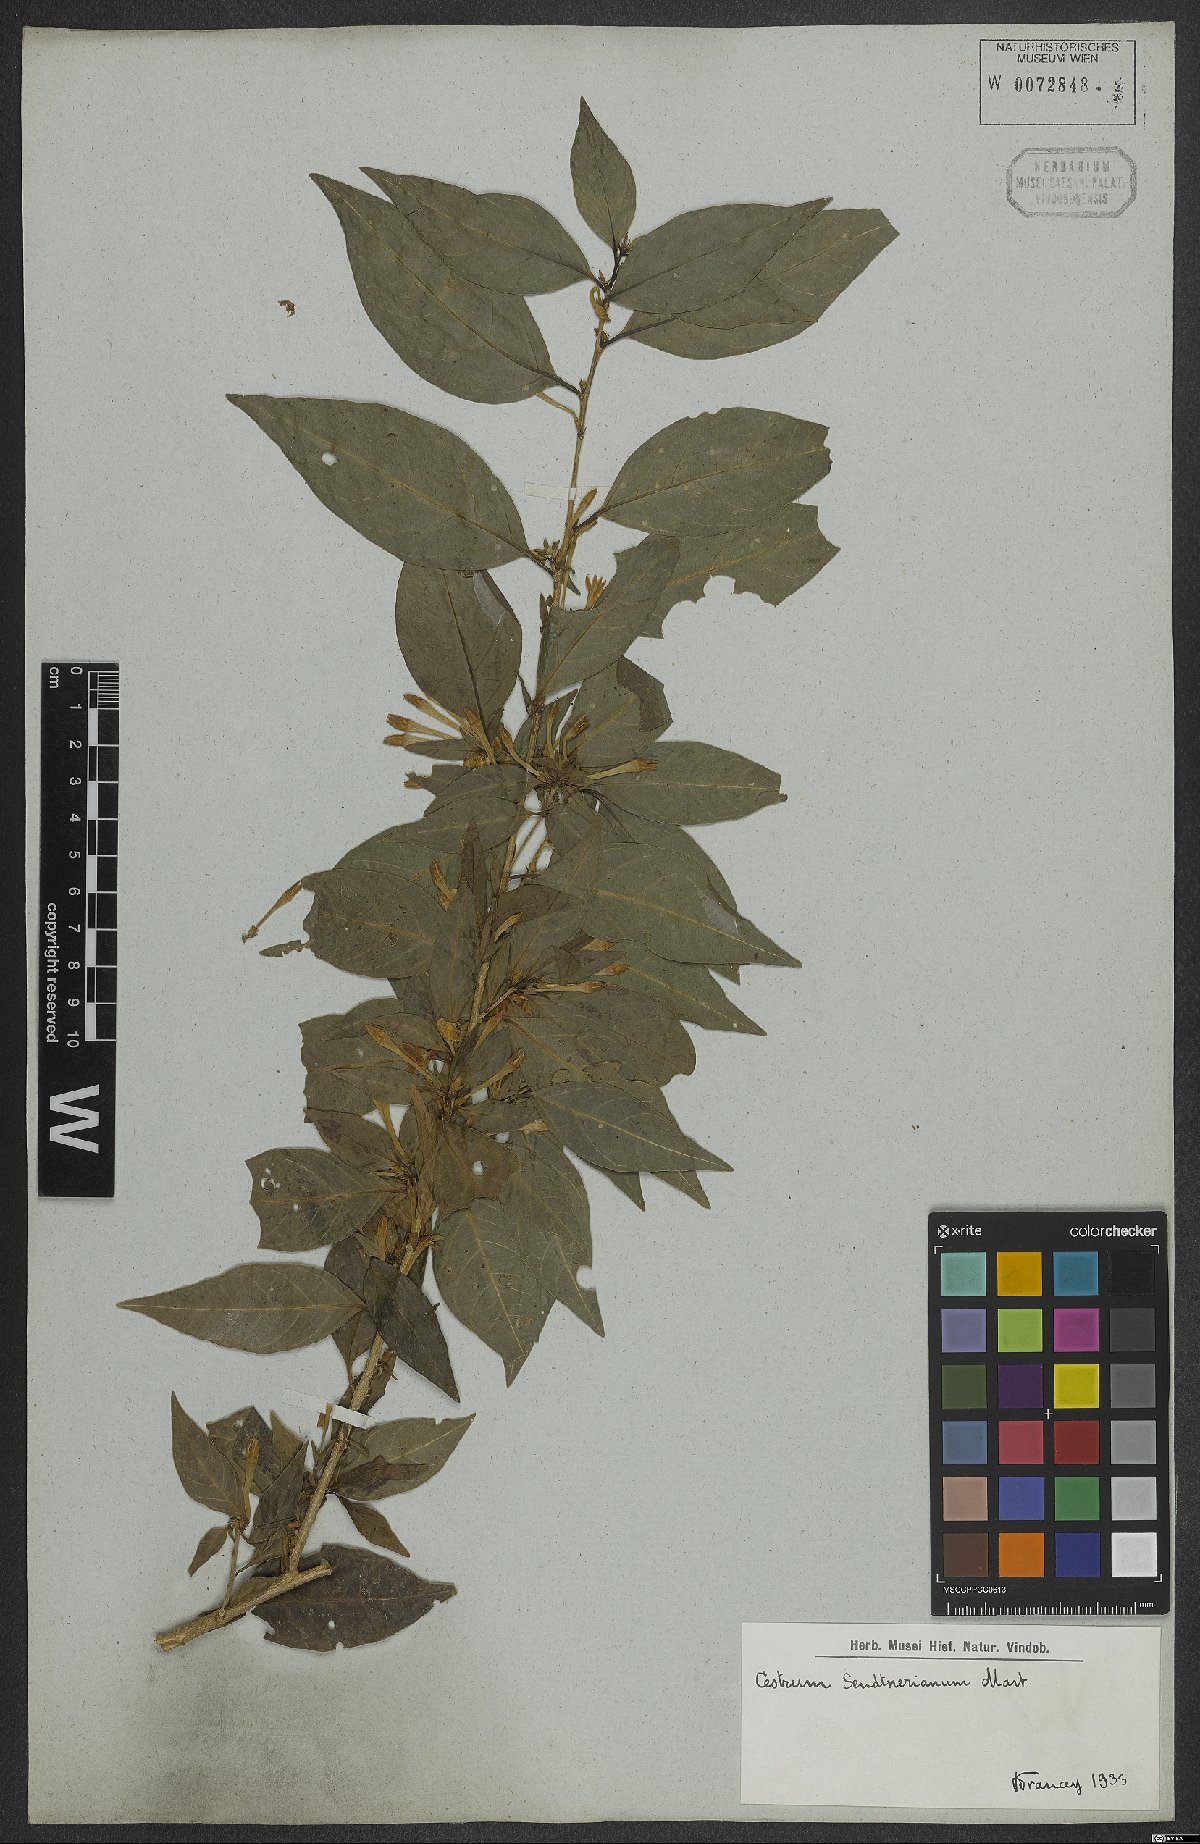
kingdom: Plantae
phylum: Tracheophyta
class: Magnoliopsida
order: Solanales
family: Solanaceae
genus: Cestrum
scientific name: Cestrum mariquitense
